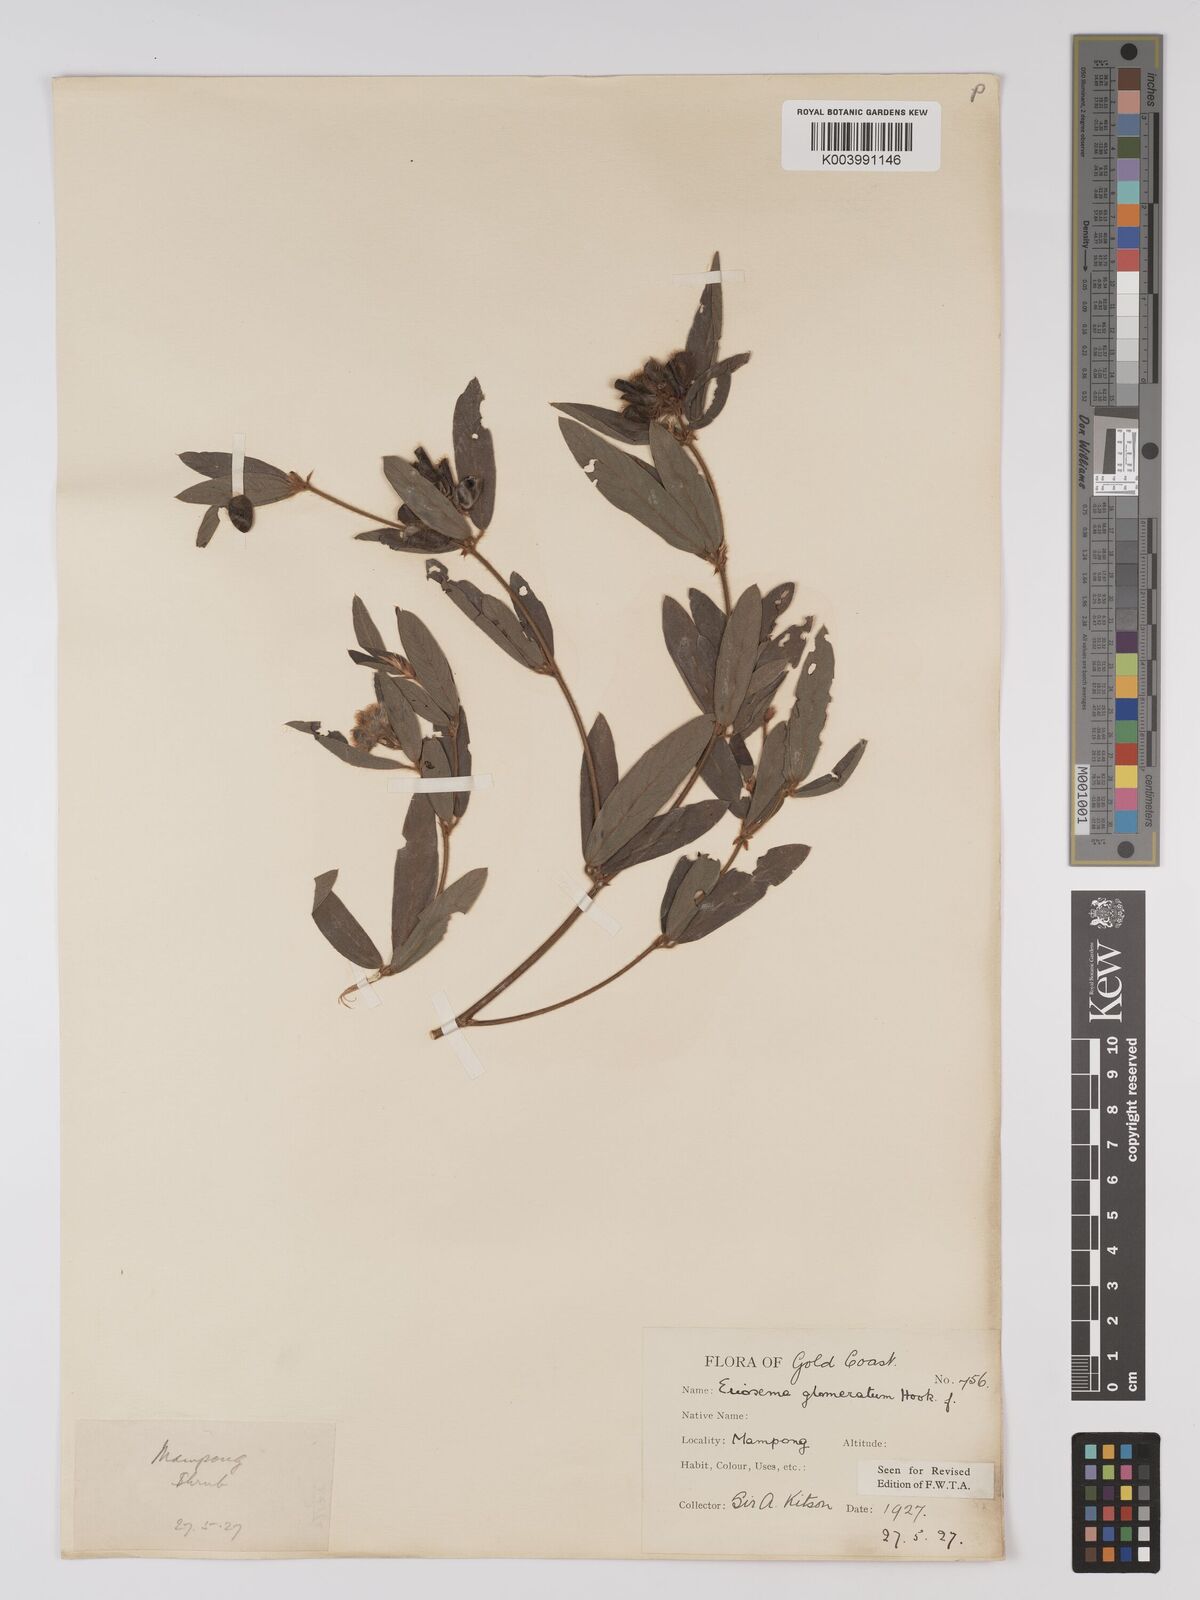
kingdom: Plantae
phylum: Tracheophyta
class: Magnoliopsida
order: Fabales
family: Fabaceae
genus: Eriosema
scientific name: Eriosema glomeratum
